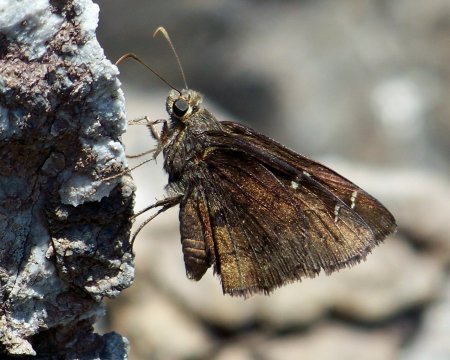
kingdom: Animalia
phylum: Arthropoda
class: Insecta
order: Lepidoptera
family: Hesperiidae
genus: Autochton
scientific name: Autochton
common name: Northern Cloudywing
